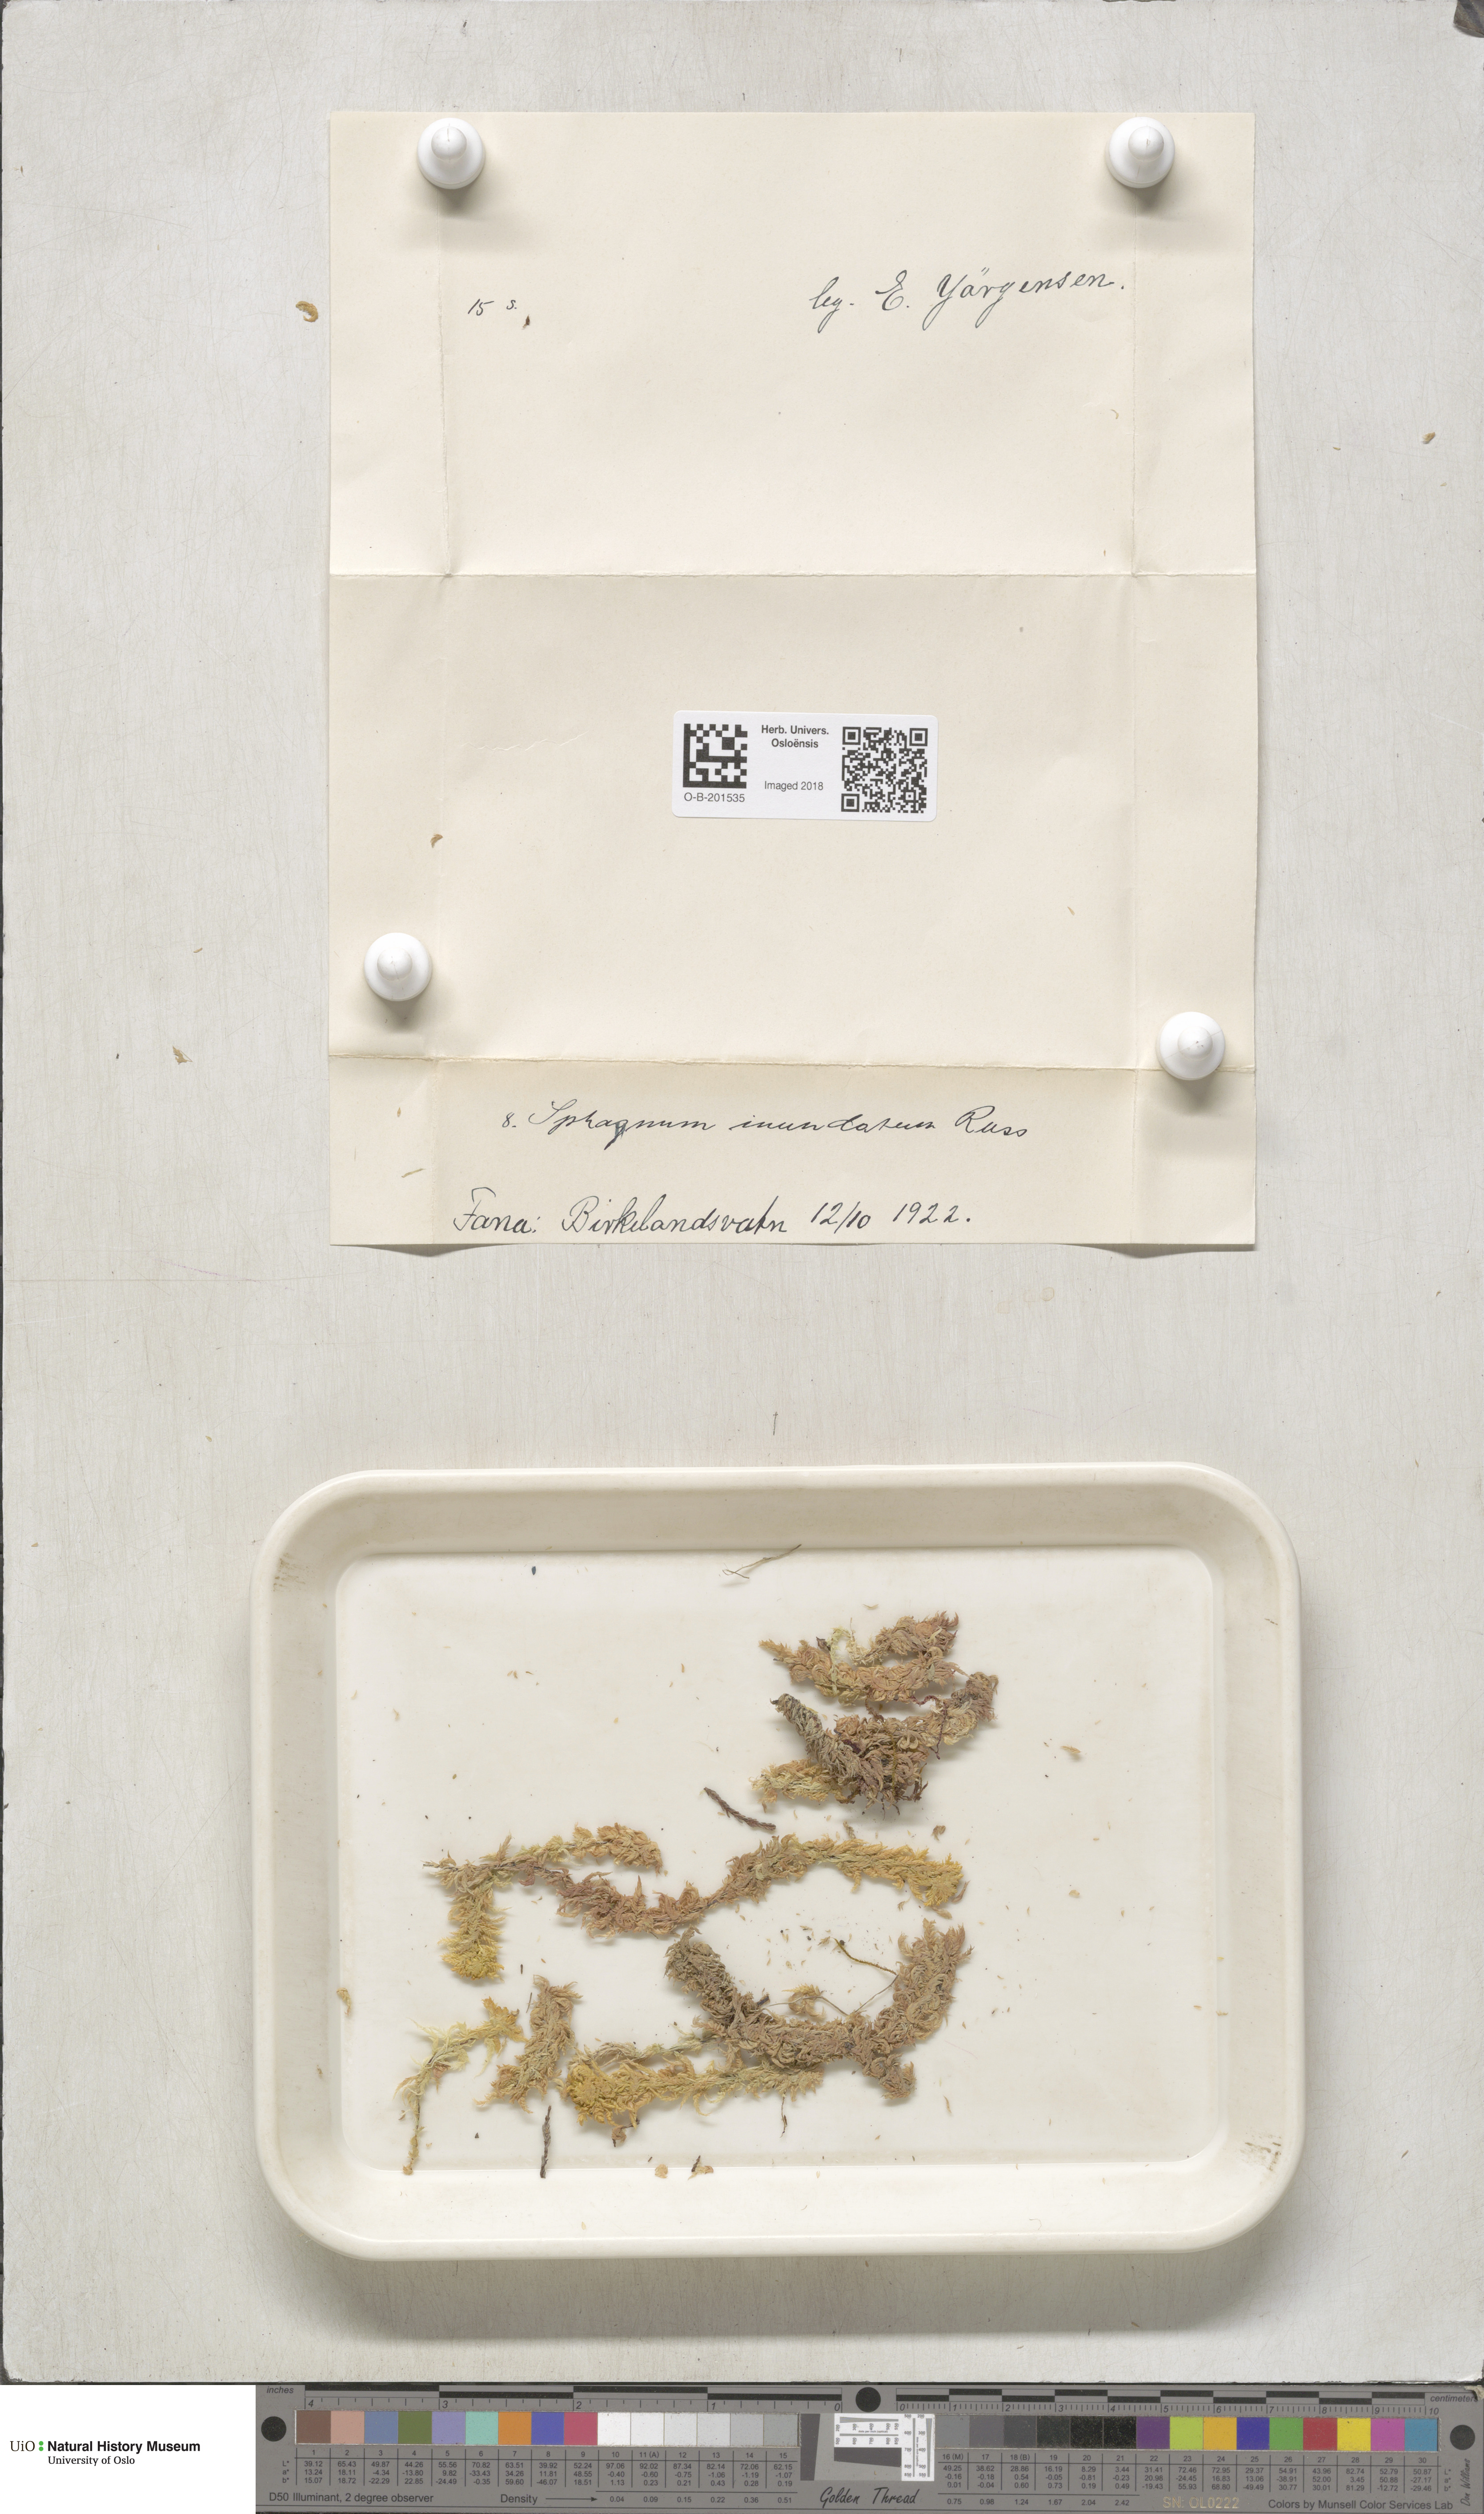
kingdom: Plantae
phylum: Bryophyta
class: Sphagnopsida
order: Sphagnales
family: Sphagnaceae
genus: Sphagnum
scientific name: Sphagnum inundatum
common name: Lesser cow-horn bog-moss
